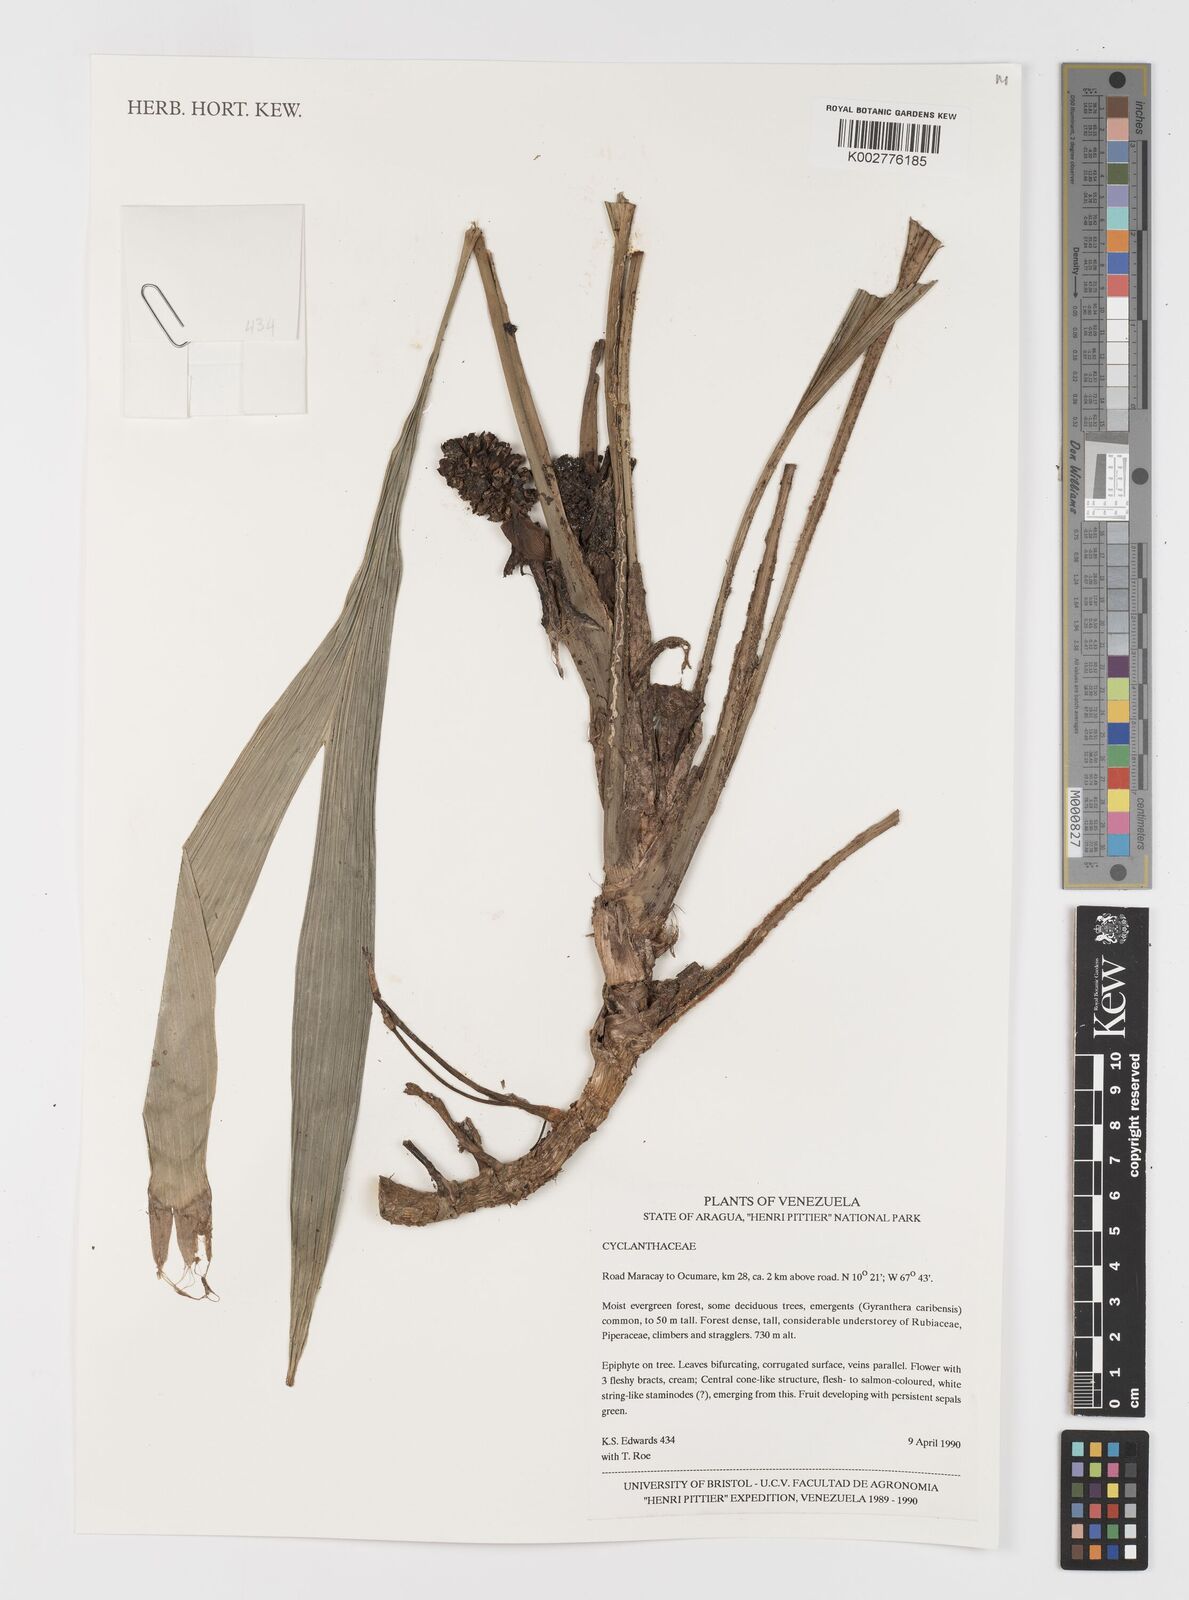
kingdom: Plantae
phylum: Tracheophyta
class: Liliopsida
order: Pandanales
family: Cyclanthaceae
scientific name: Cyclanthaceae
